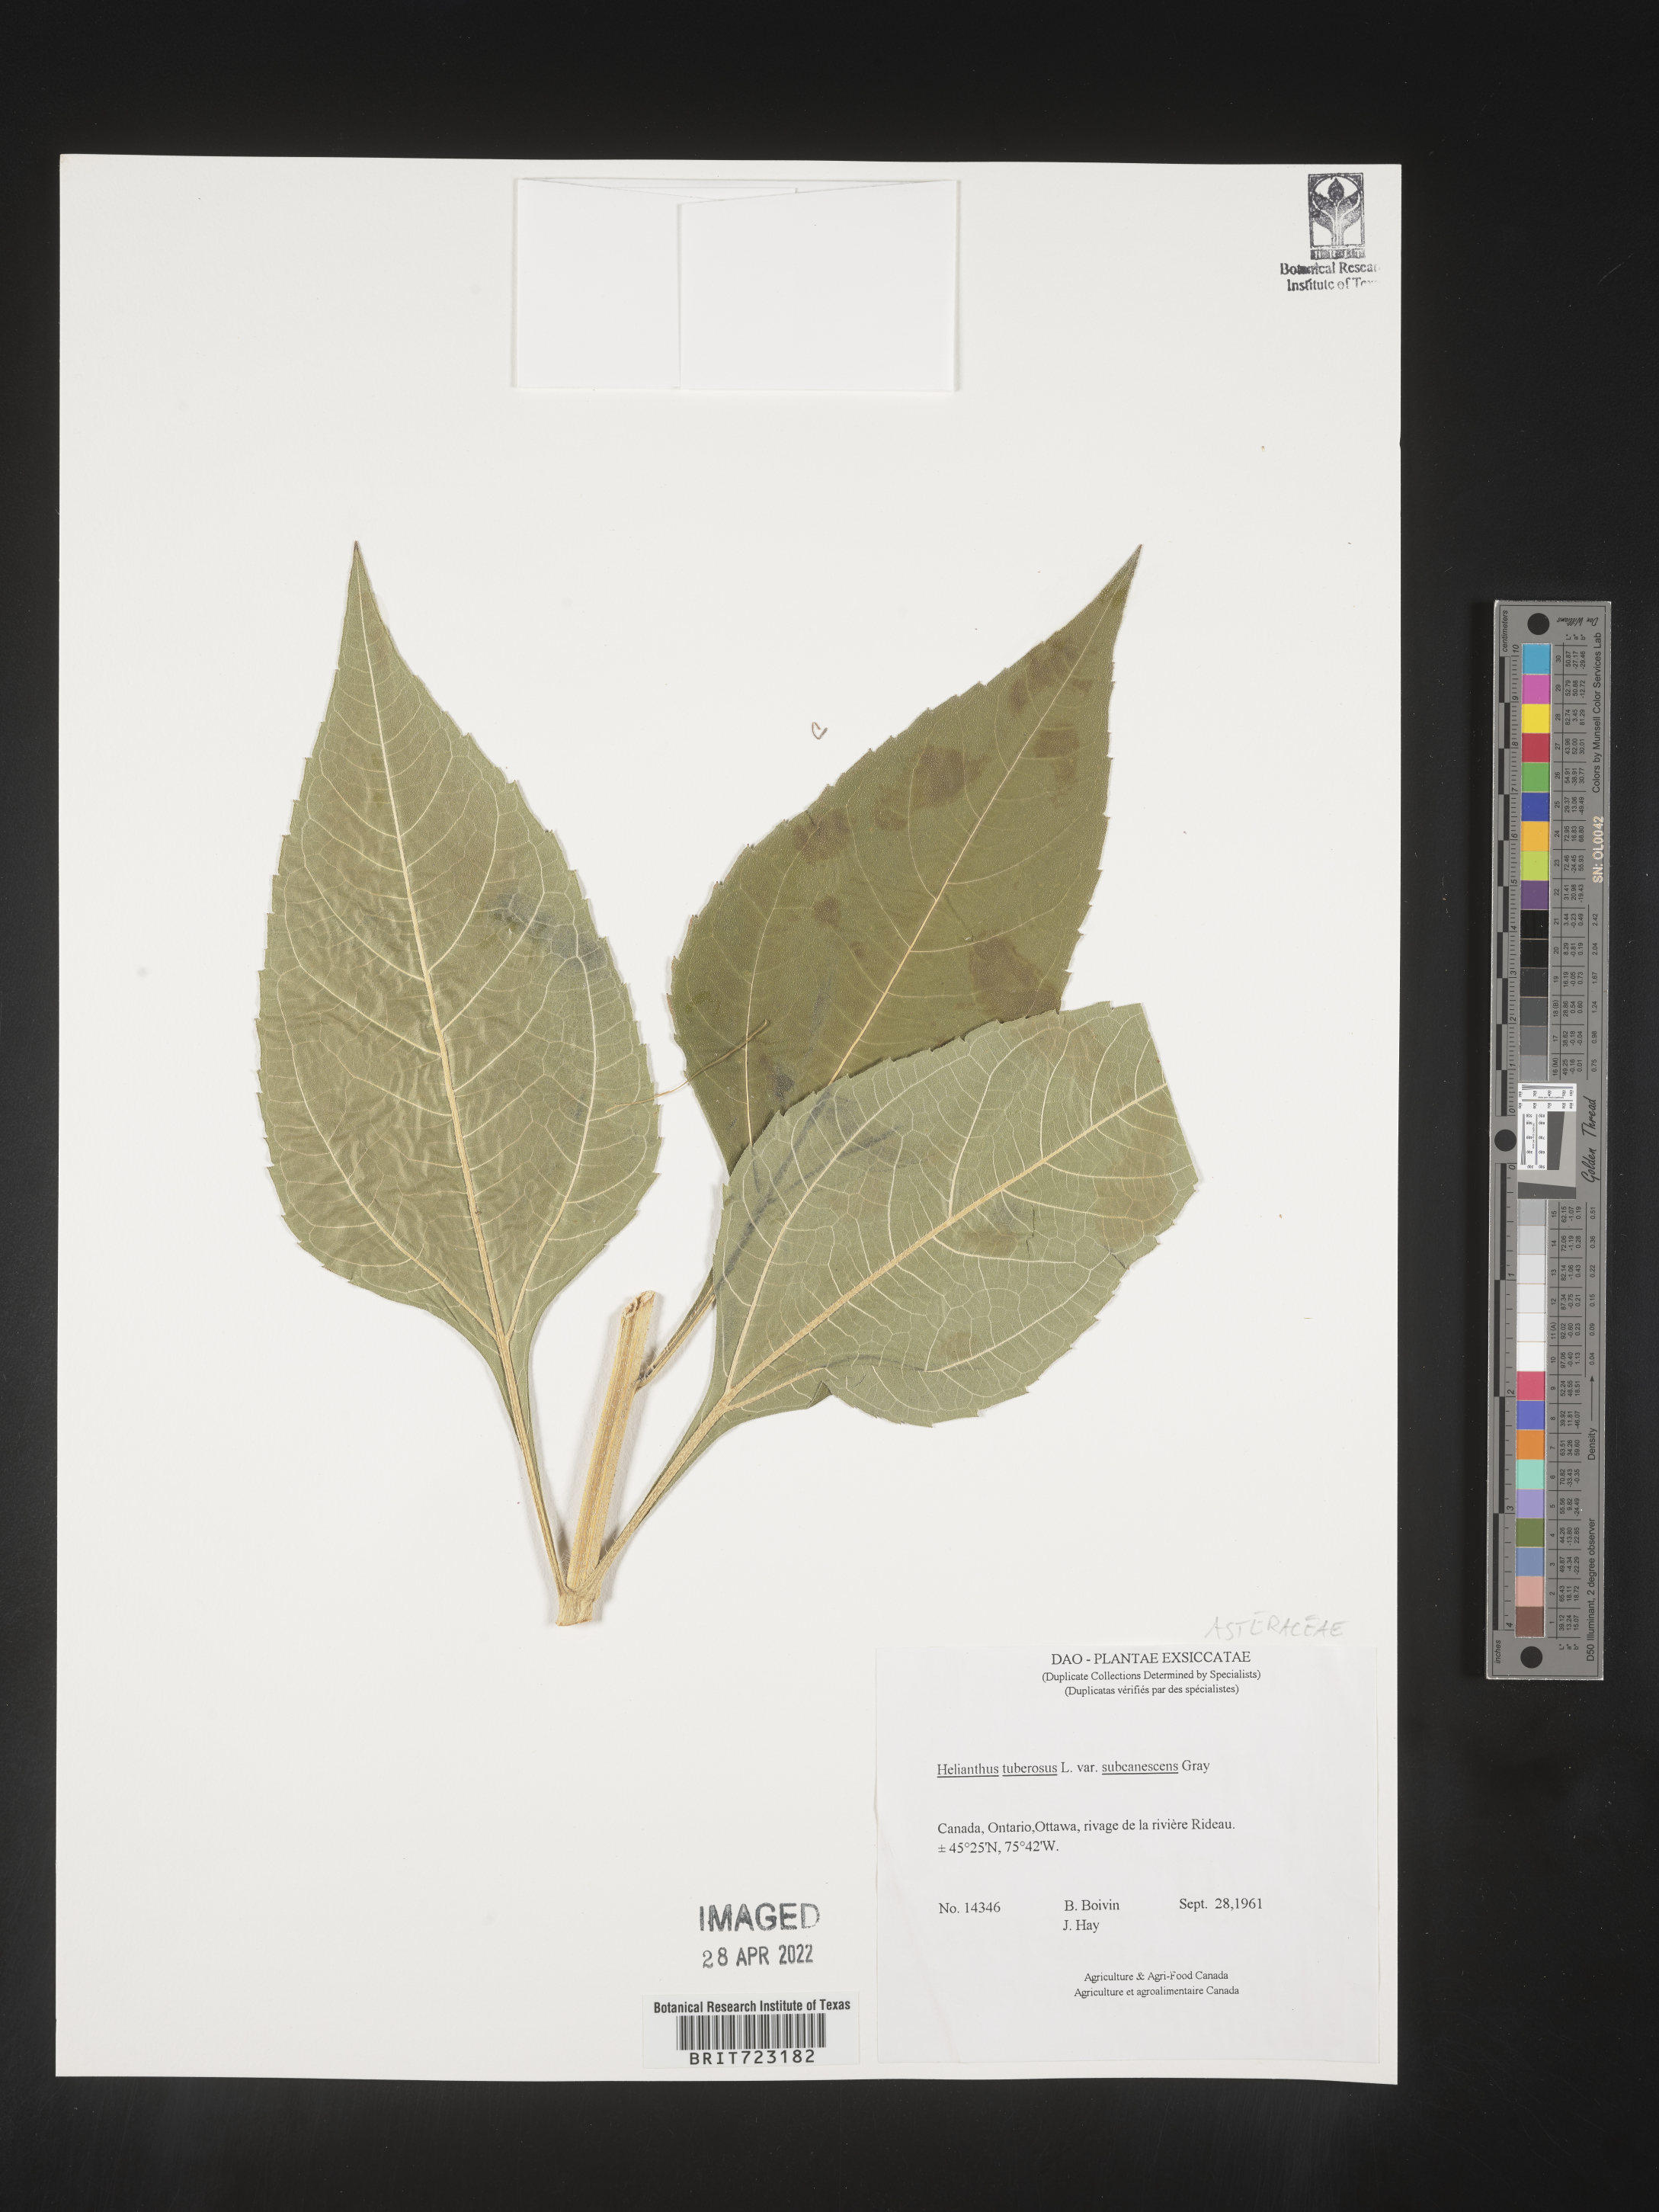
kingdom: Plantae
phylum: Tracheophyta
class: Magnoliopsida
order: Asterales
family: Asteraceae
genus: Helianthus
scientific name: Helianthus tuberosus
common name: Jerusalem artichoke
